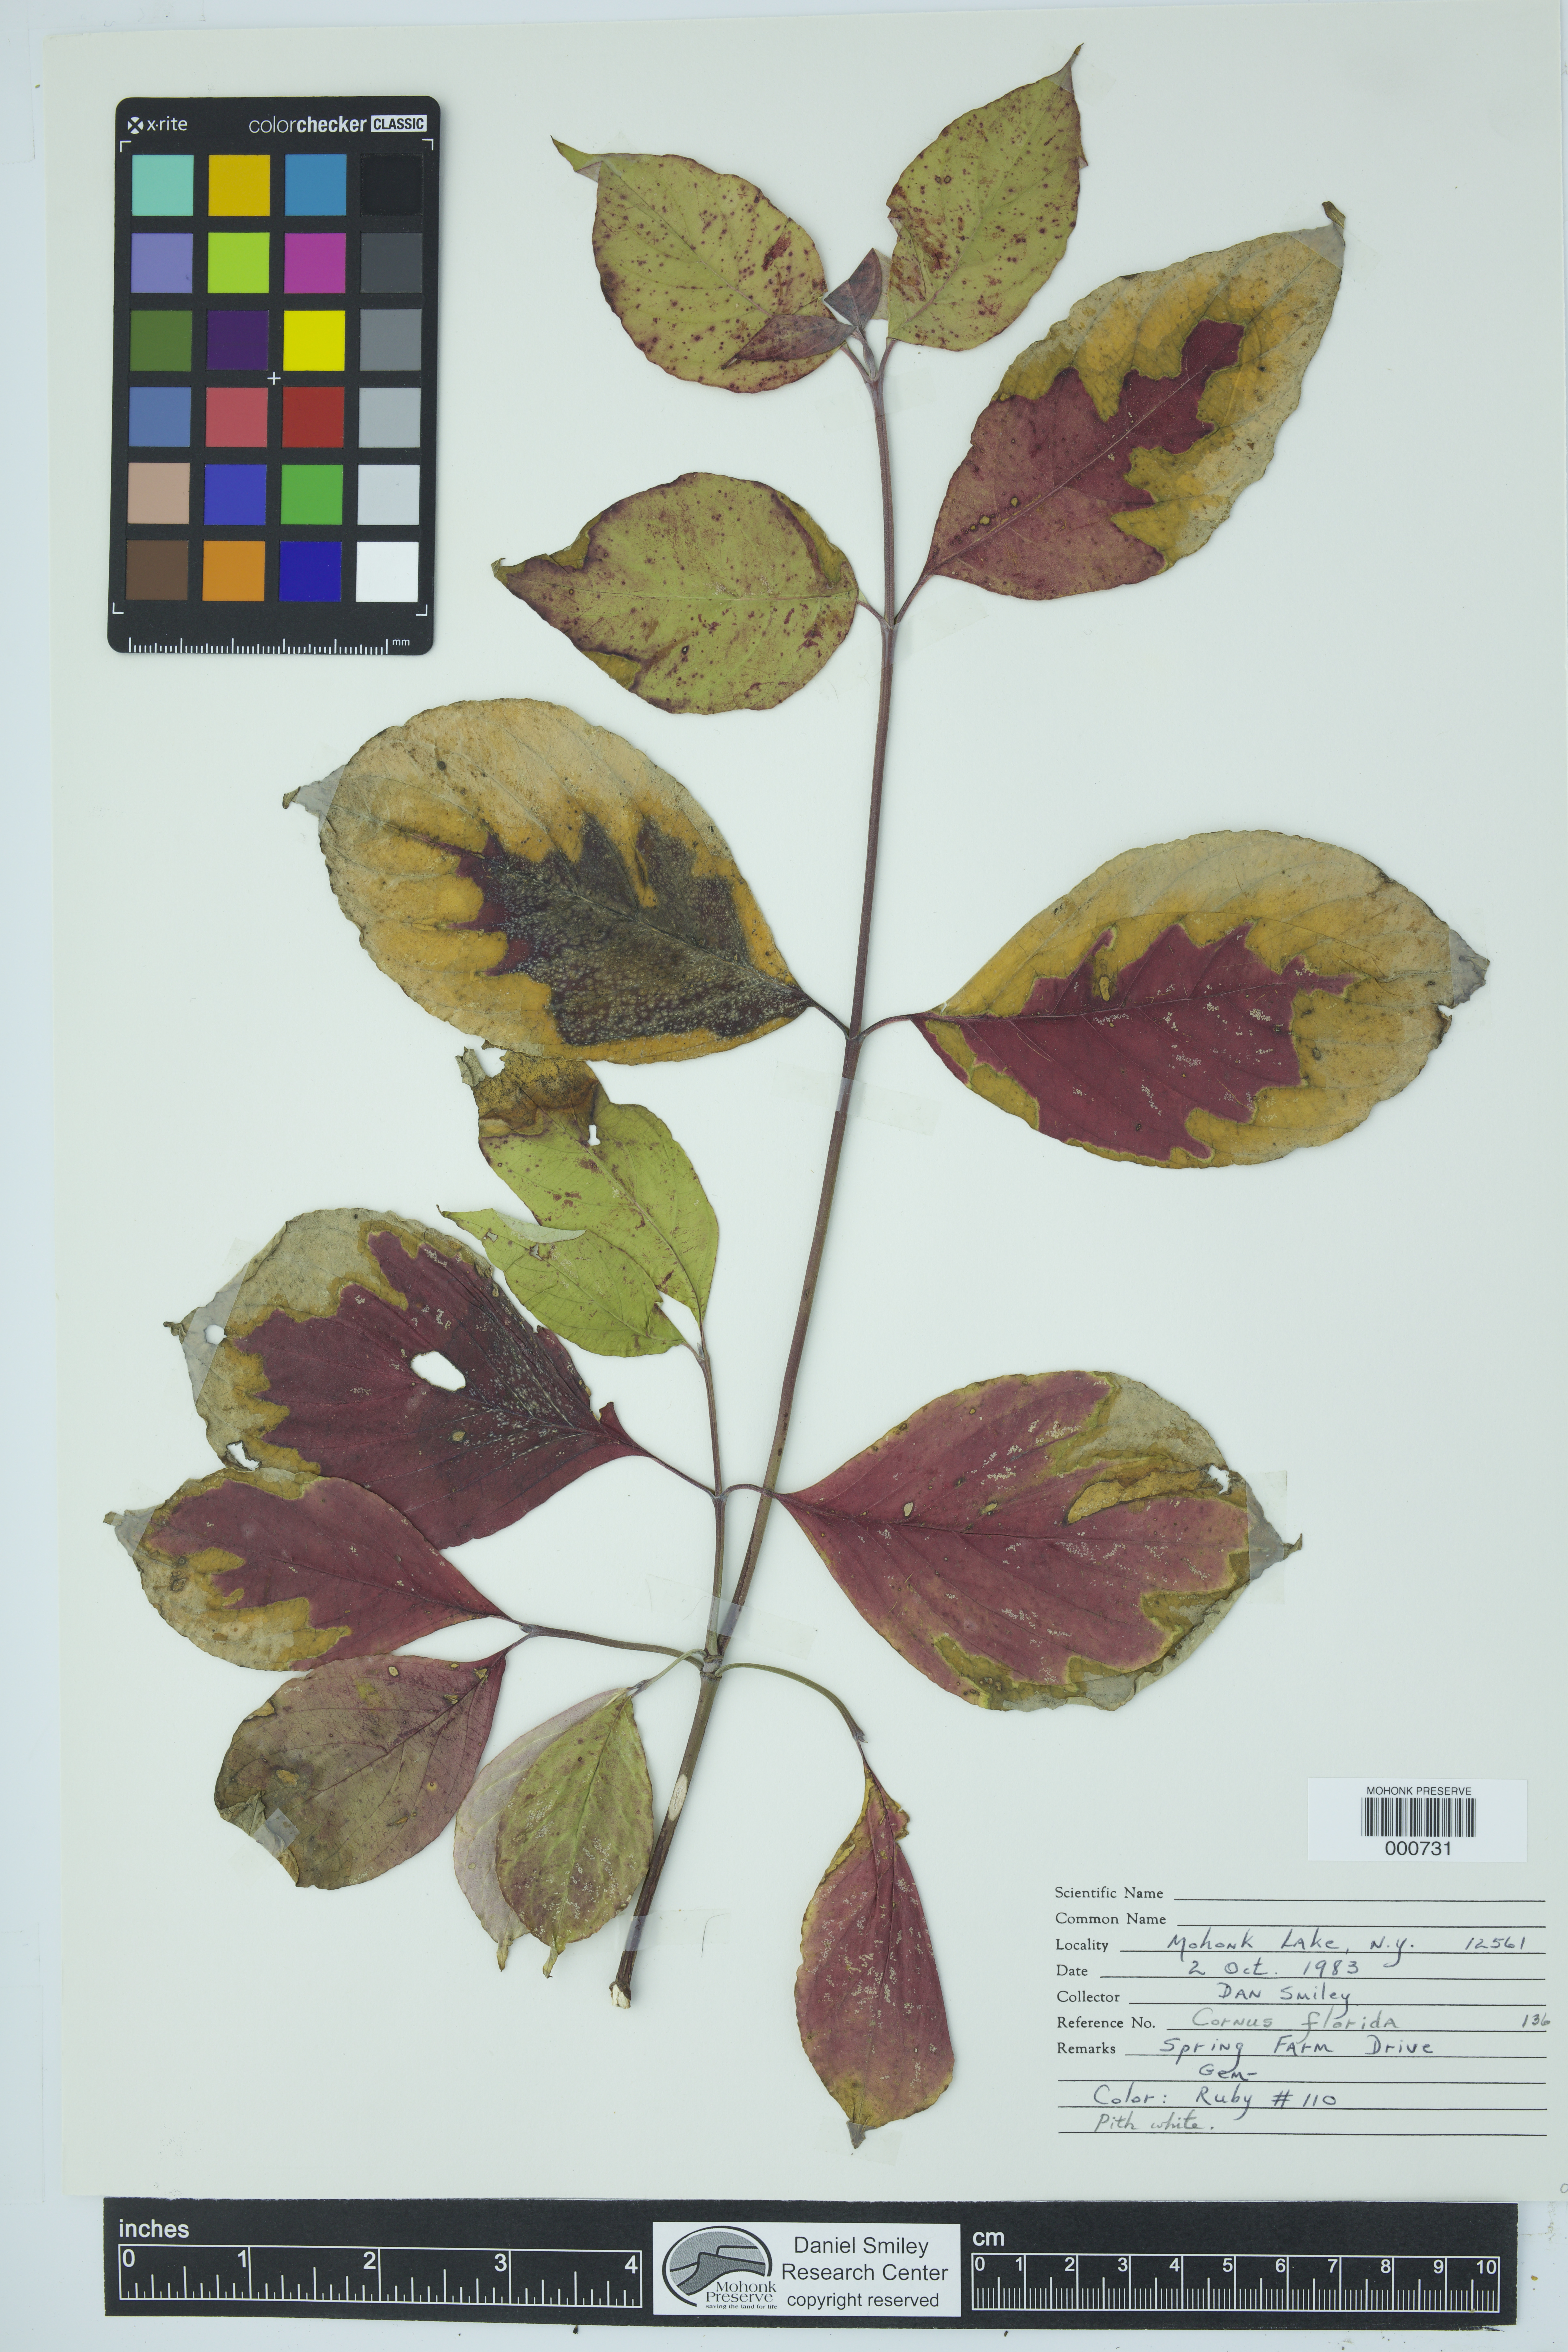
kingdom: Plantae
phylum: Tracheophyta
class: Magnoliopsida
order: Cornales
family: Cornaceae
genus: Cornus
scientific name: Cornus florida
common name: Flowering dogwood
